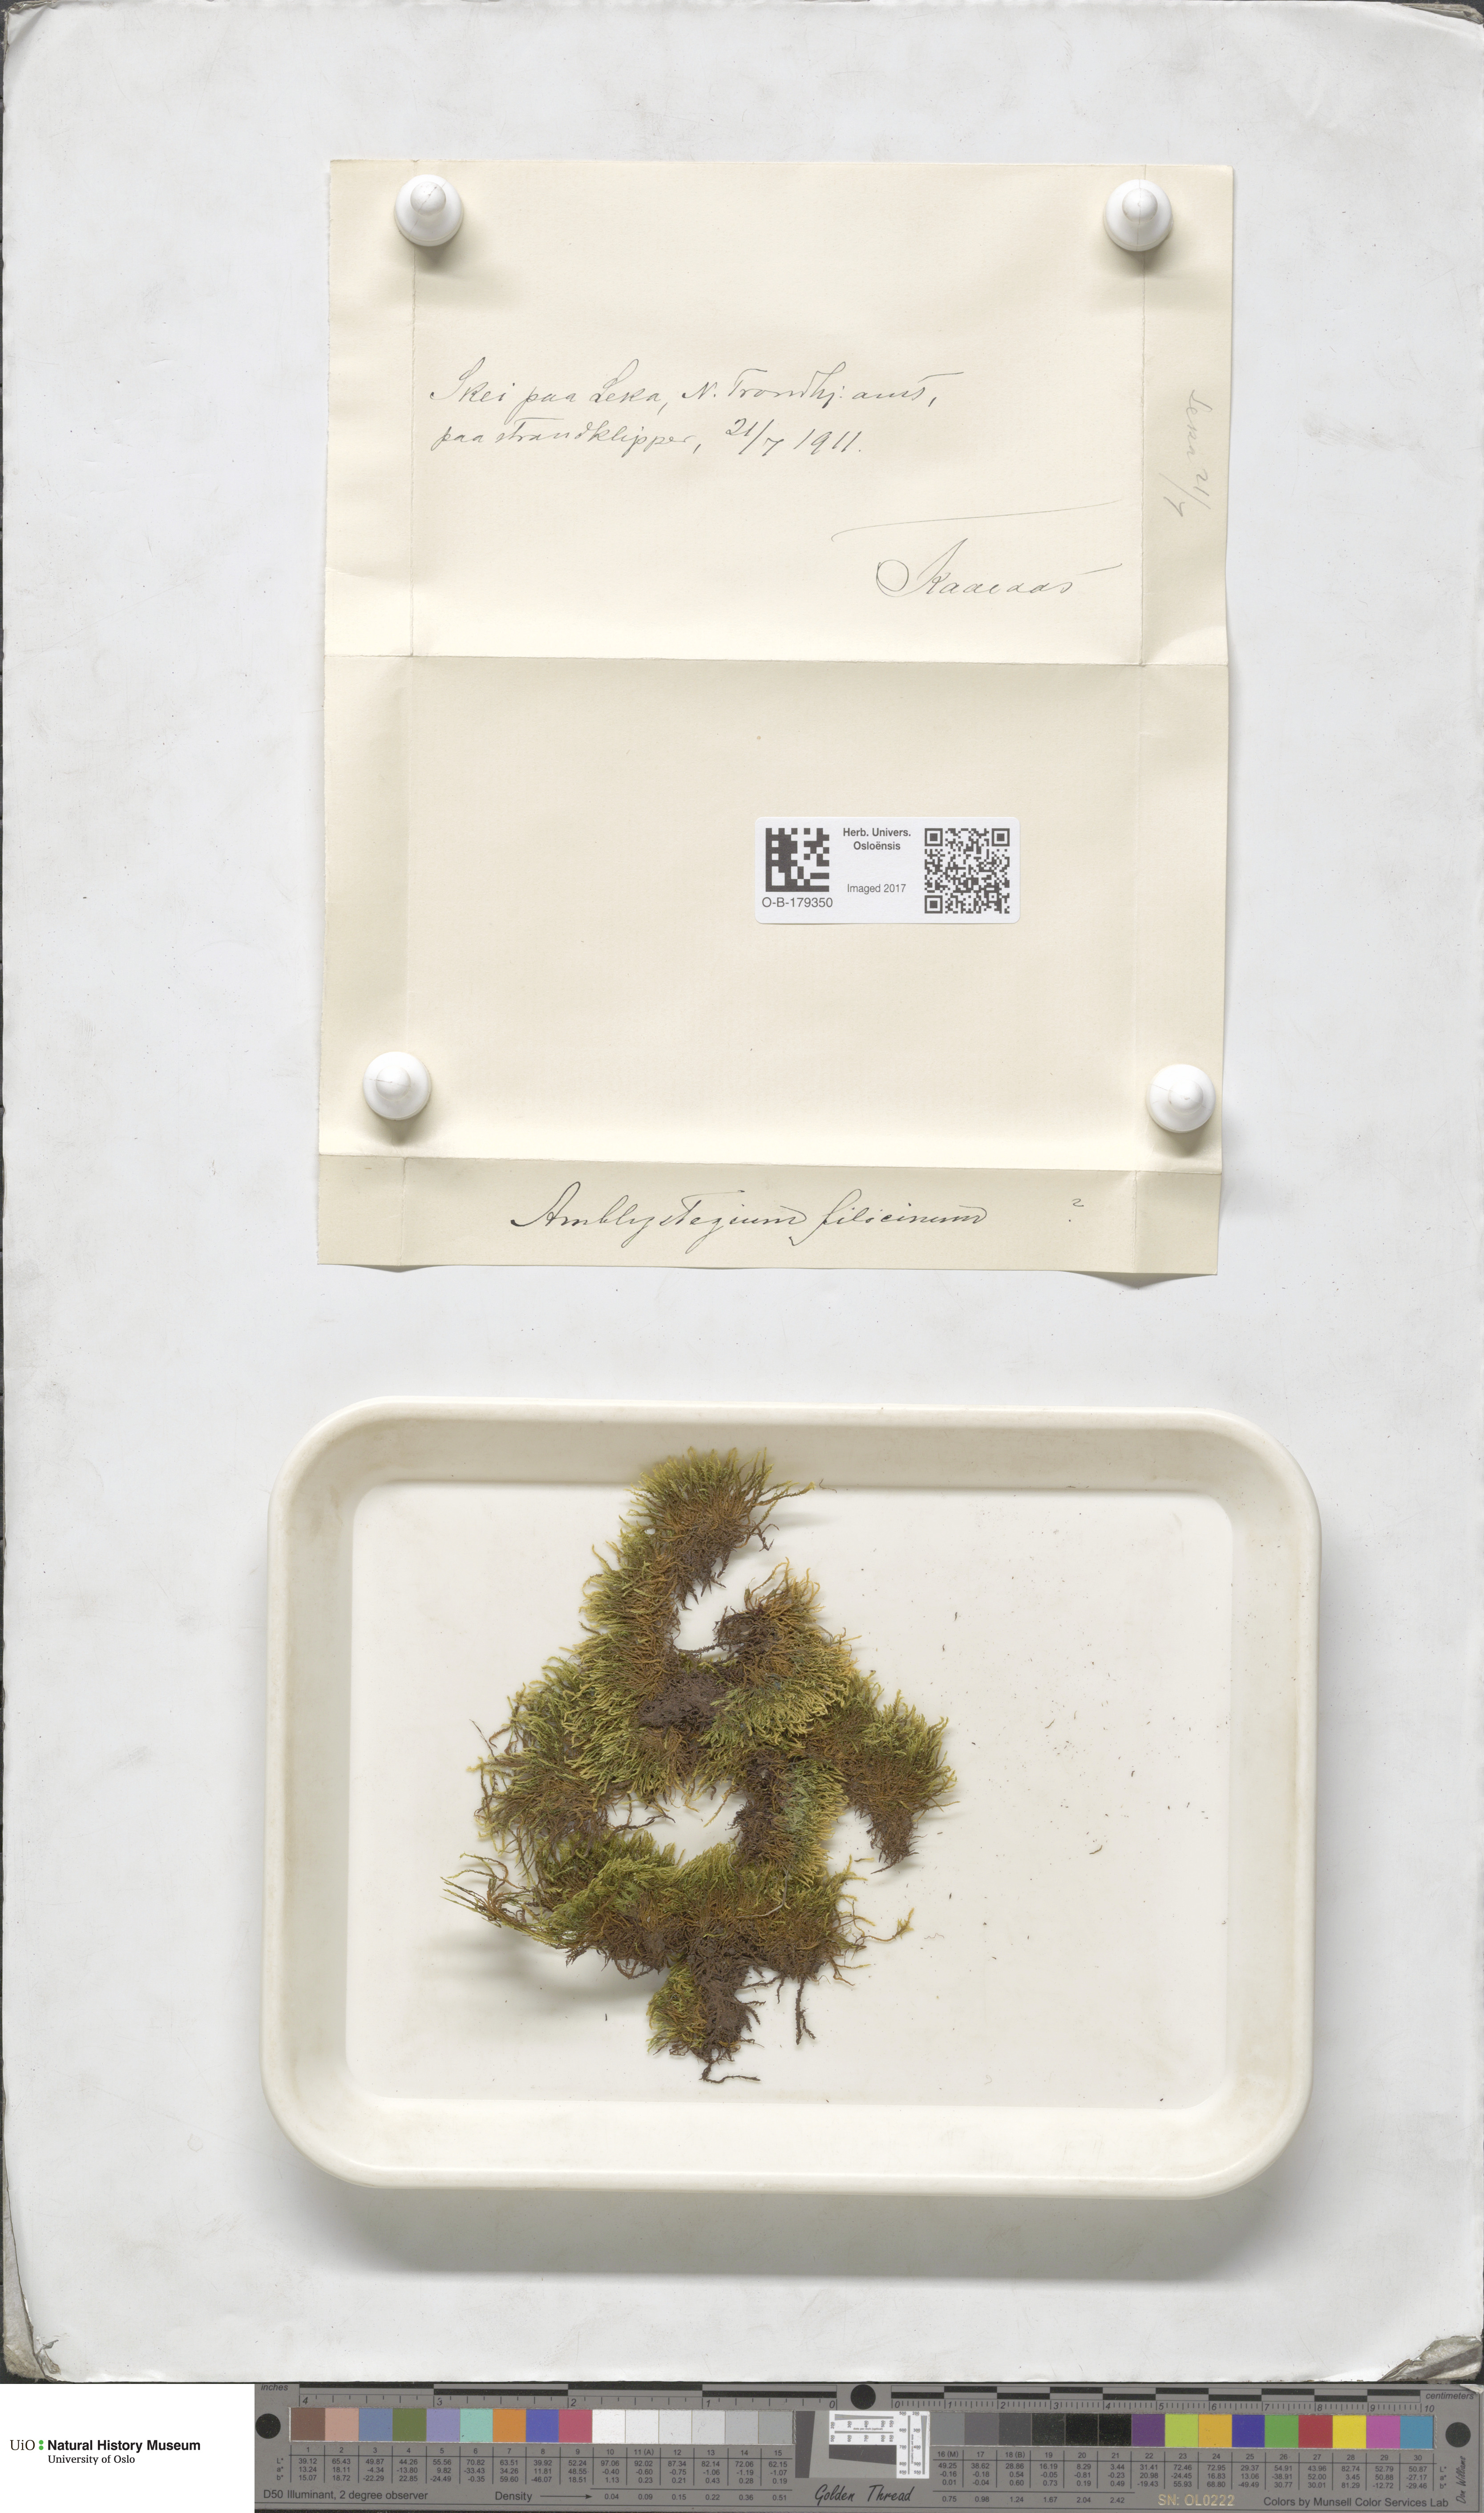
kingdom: Plantae
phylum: Bryophyta
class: Bryopsida
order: Hypnales
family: Amblystegiaceae
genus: Cratoneuron
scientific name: Cratoneuron filicinum
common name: Fern-leaved hook moss
